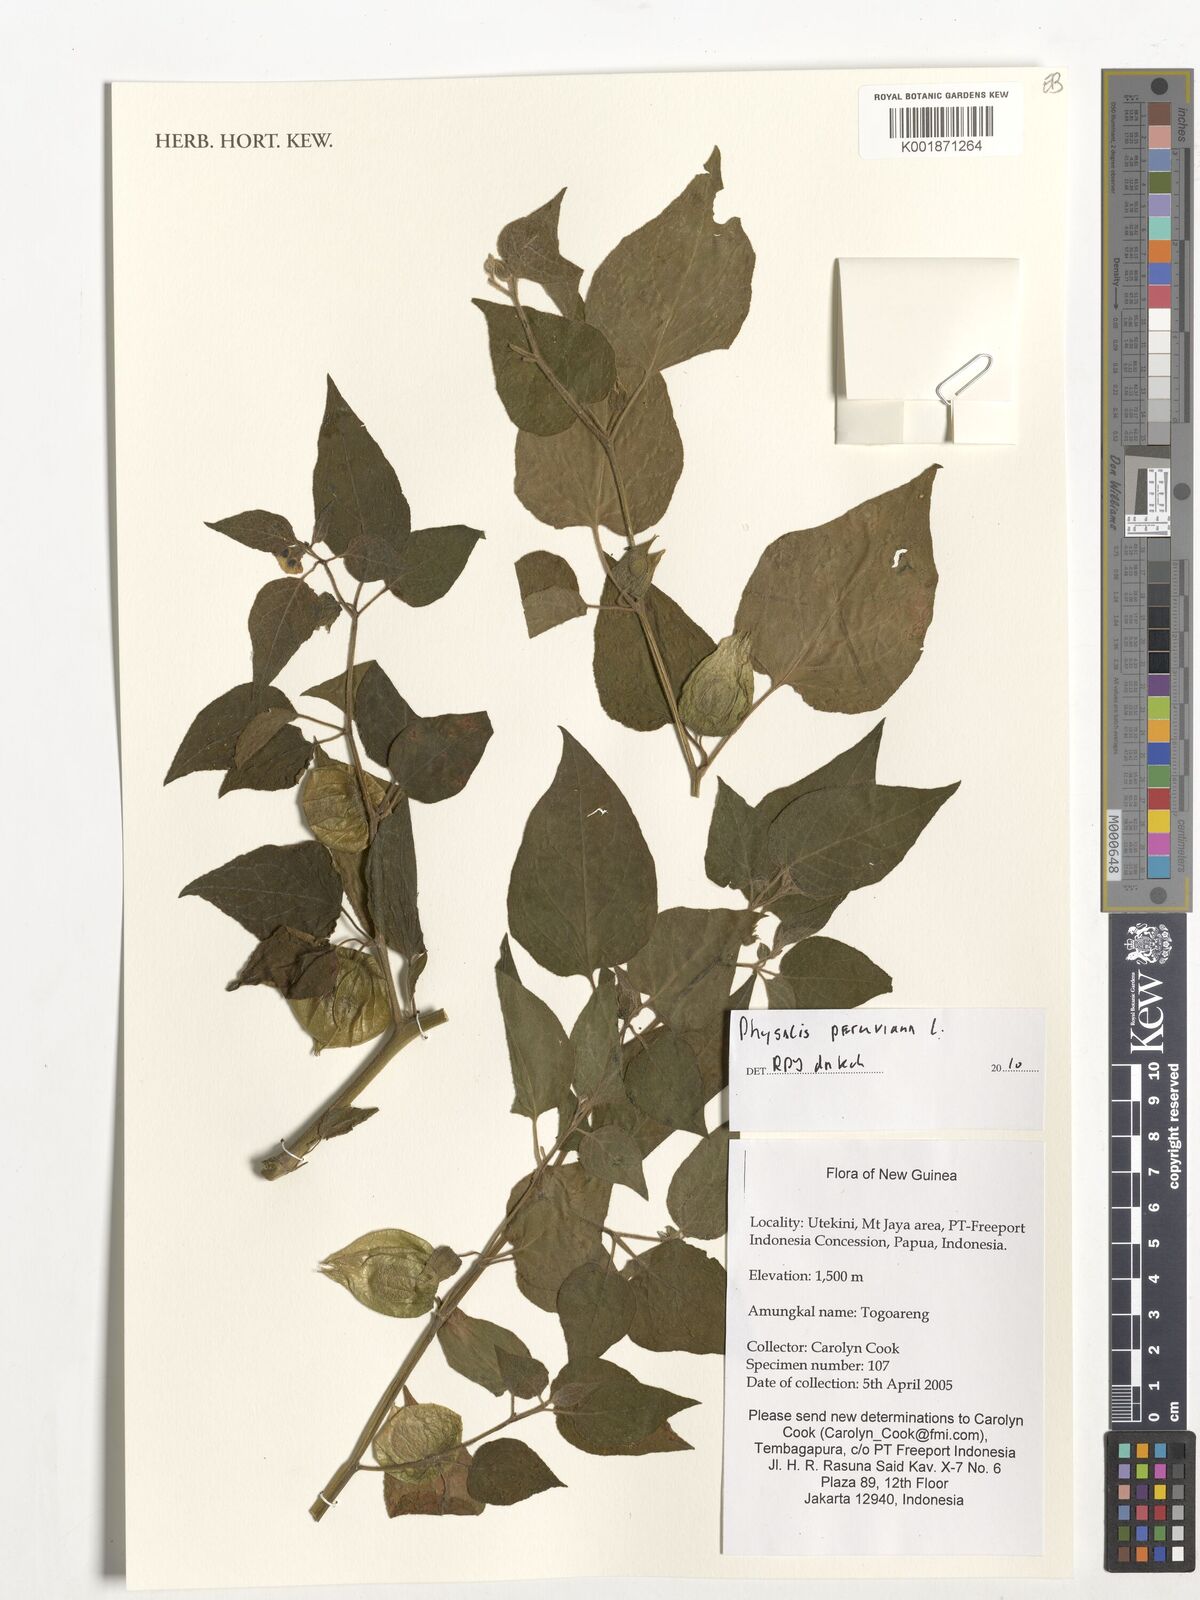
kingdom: Plantae
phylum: Tracheophyta
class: Magnoliopsida
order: Solanales
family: Solanaceae
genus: Physalis
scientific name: Physalis peruviana
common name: Cape-gooseberry
